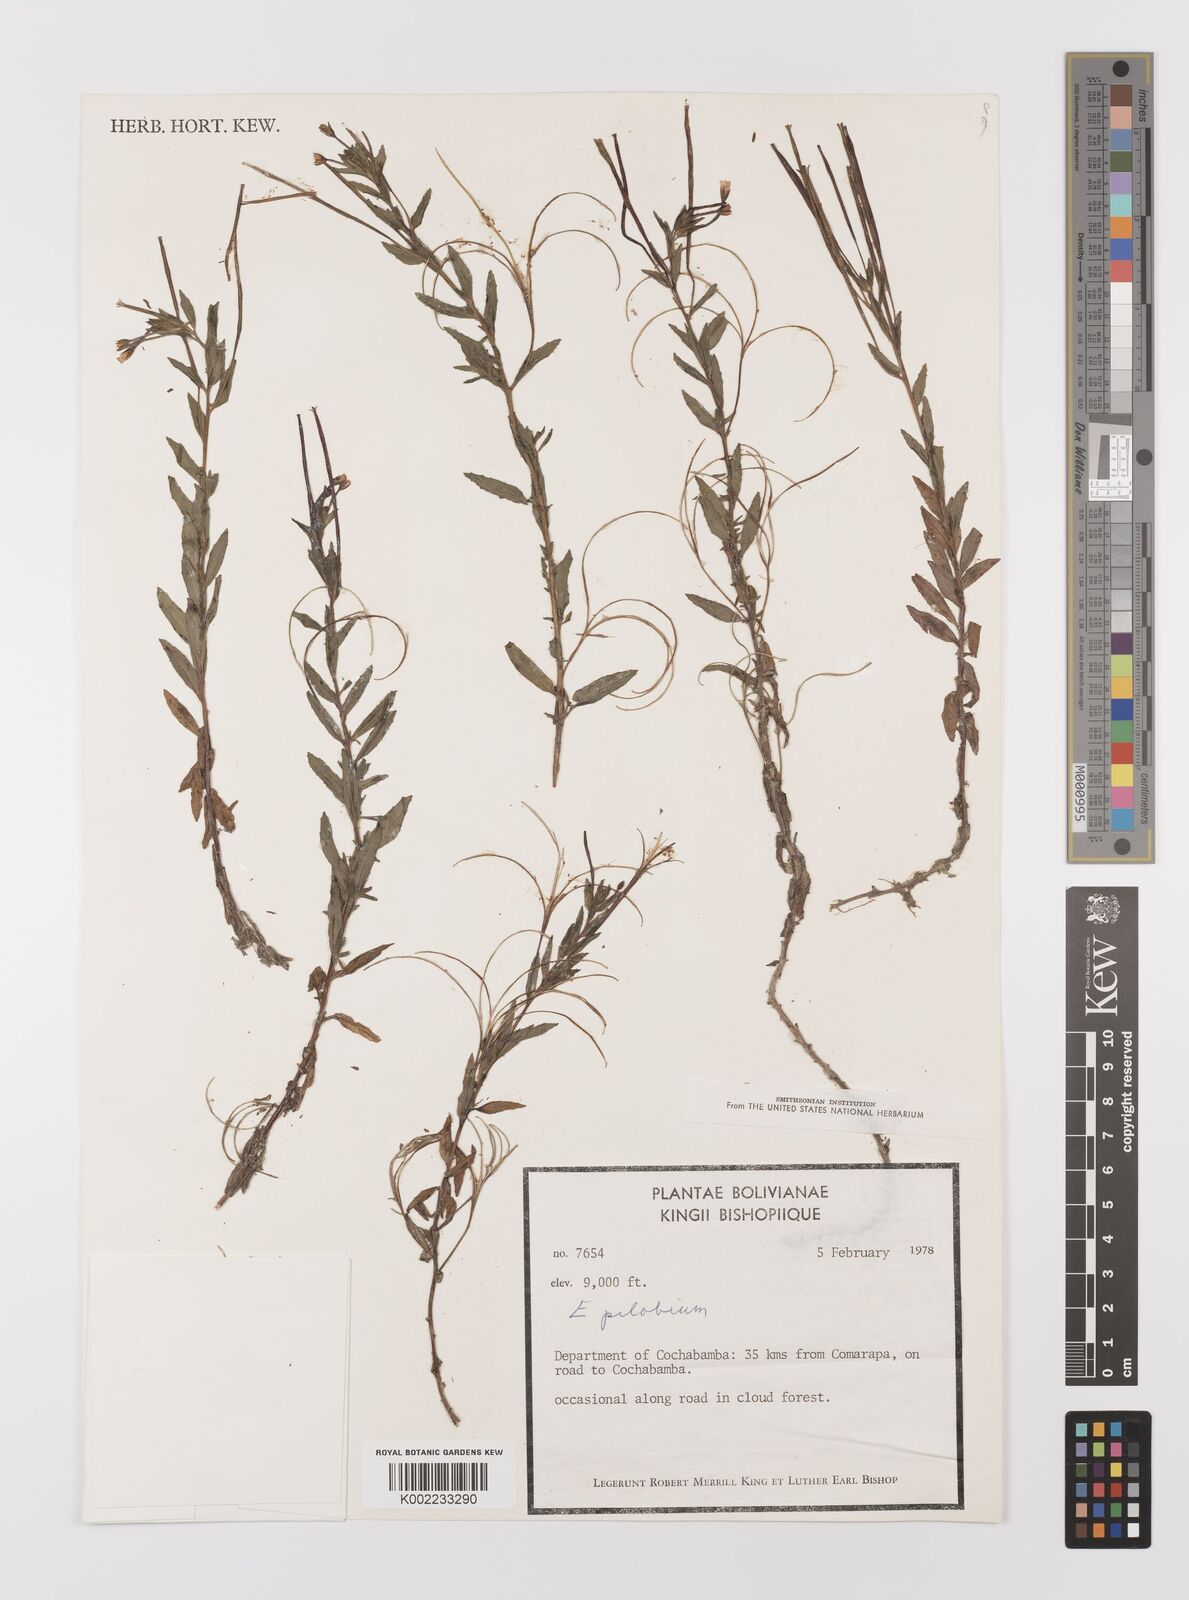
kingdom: Plantae
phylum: Tracheophyta
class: Magnoliopsida
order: Myrtales
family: Onagraceae
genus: Epilobium
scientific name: Epilobium
